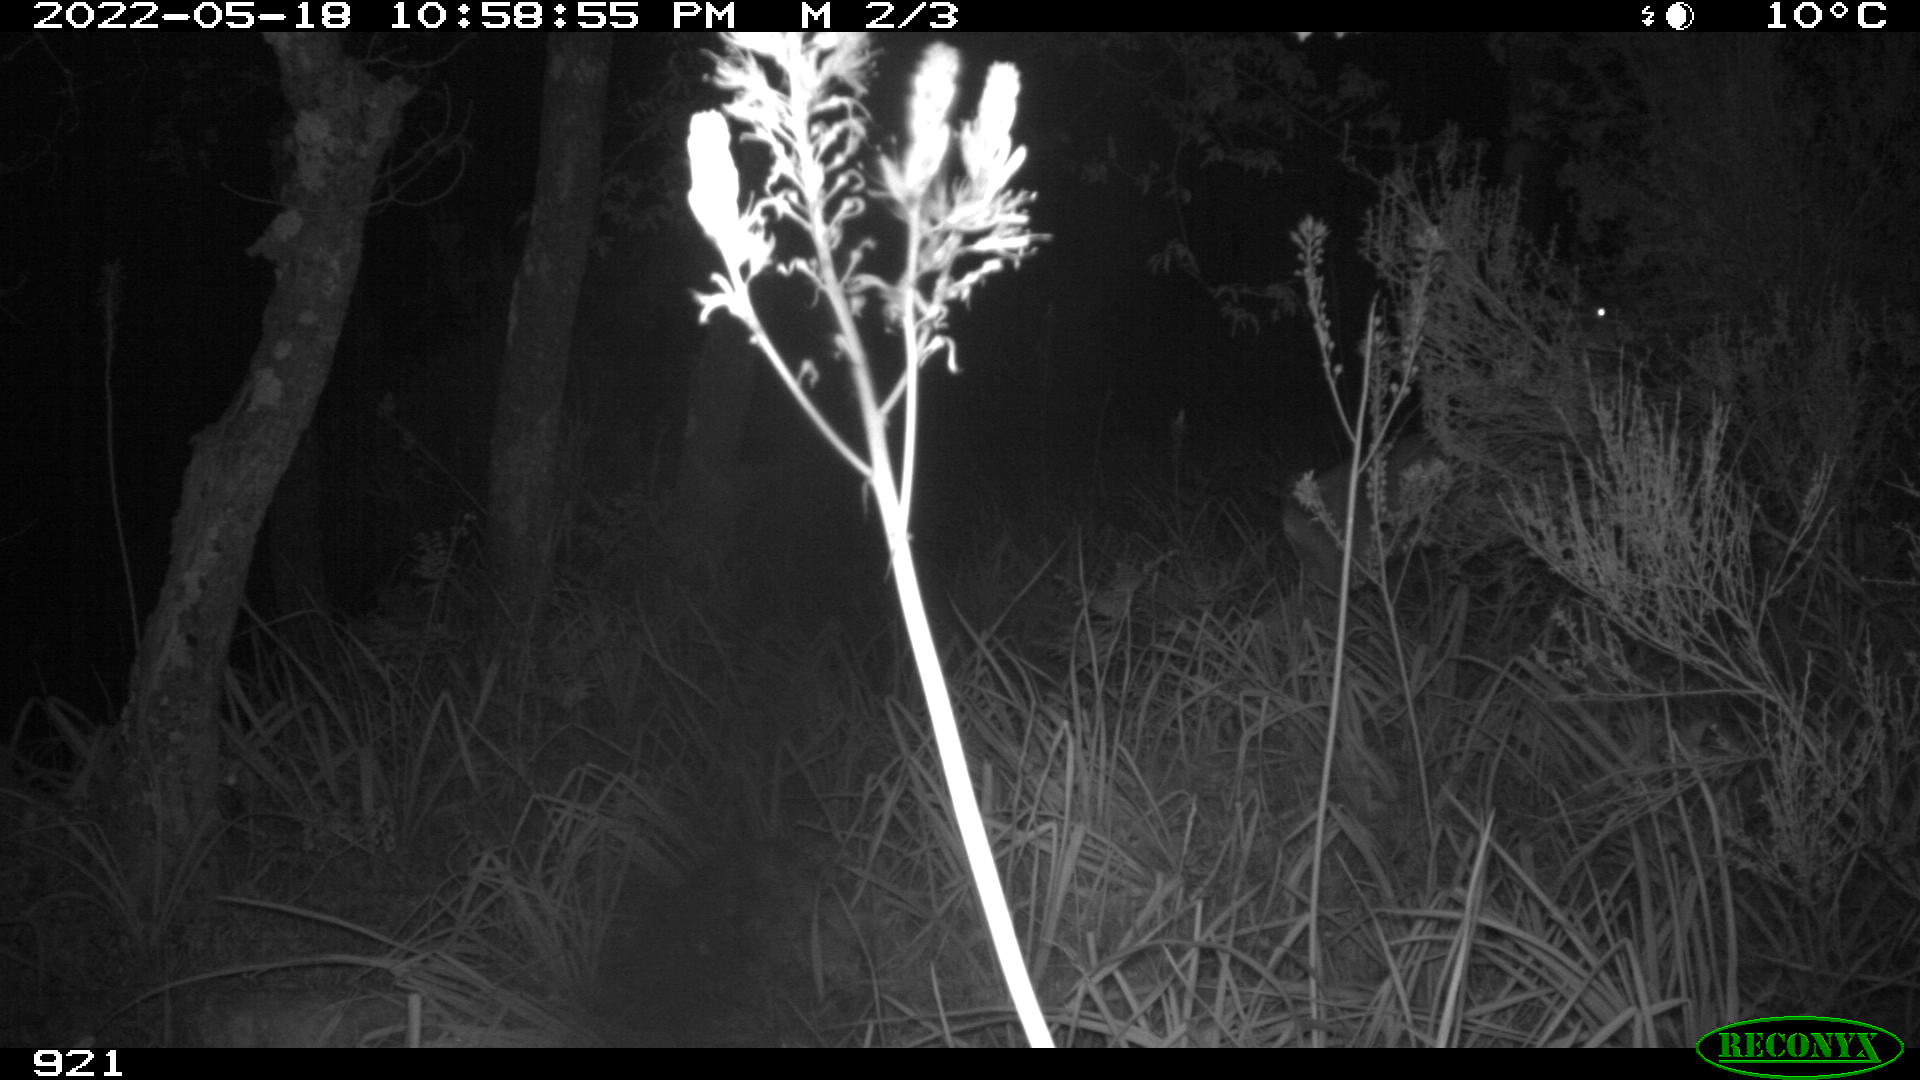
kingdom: Animalia
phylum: Chordata
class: Mammalia
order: Artiodactyla
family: Cervidae
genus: Capreolus
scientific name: Capreolus capreolus
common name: Western roe deer
